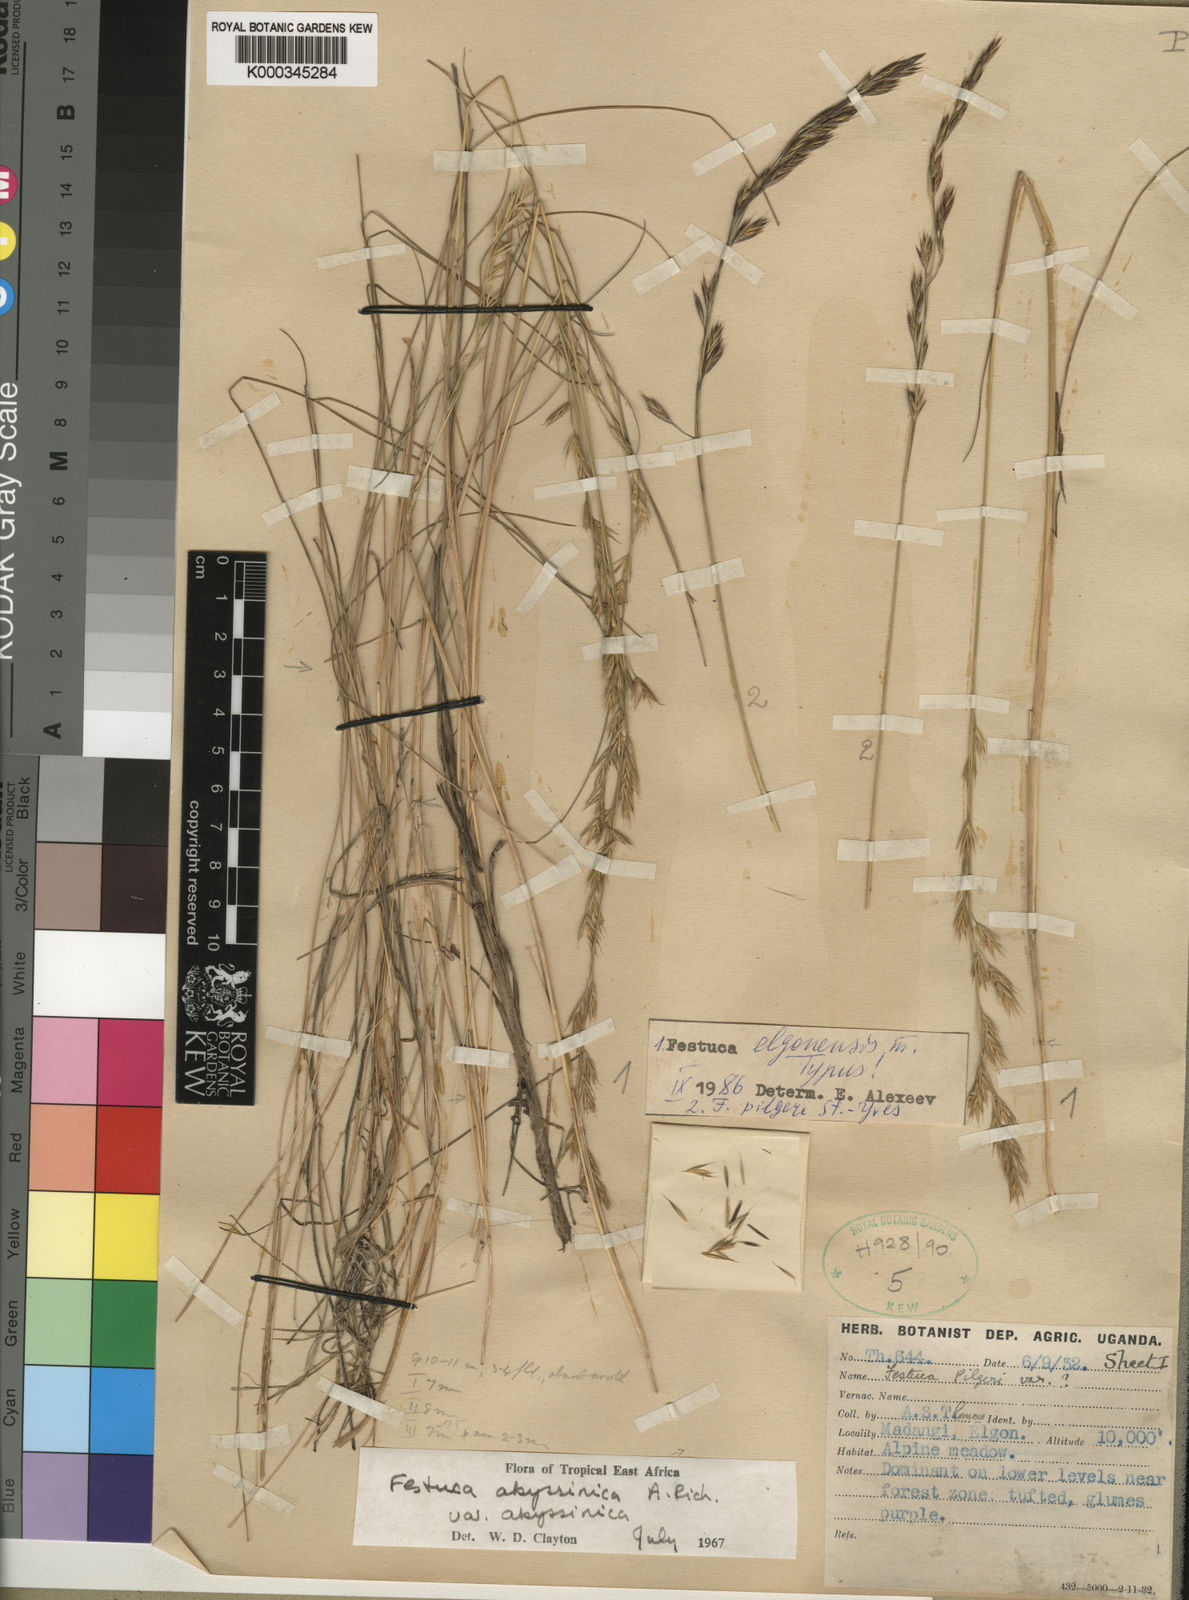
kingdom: Plantae
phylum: Tracheophyta
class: Liliopsida
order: Poales
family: Poaceae
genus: Festuca
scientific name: Festuca elgonensis
